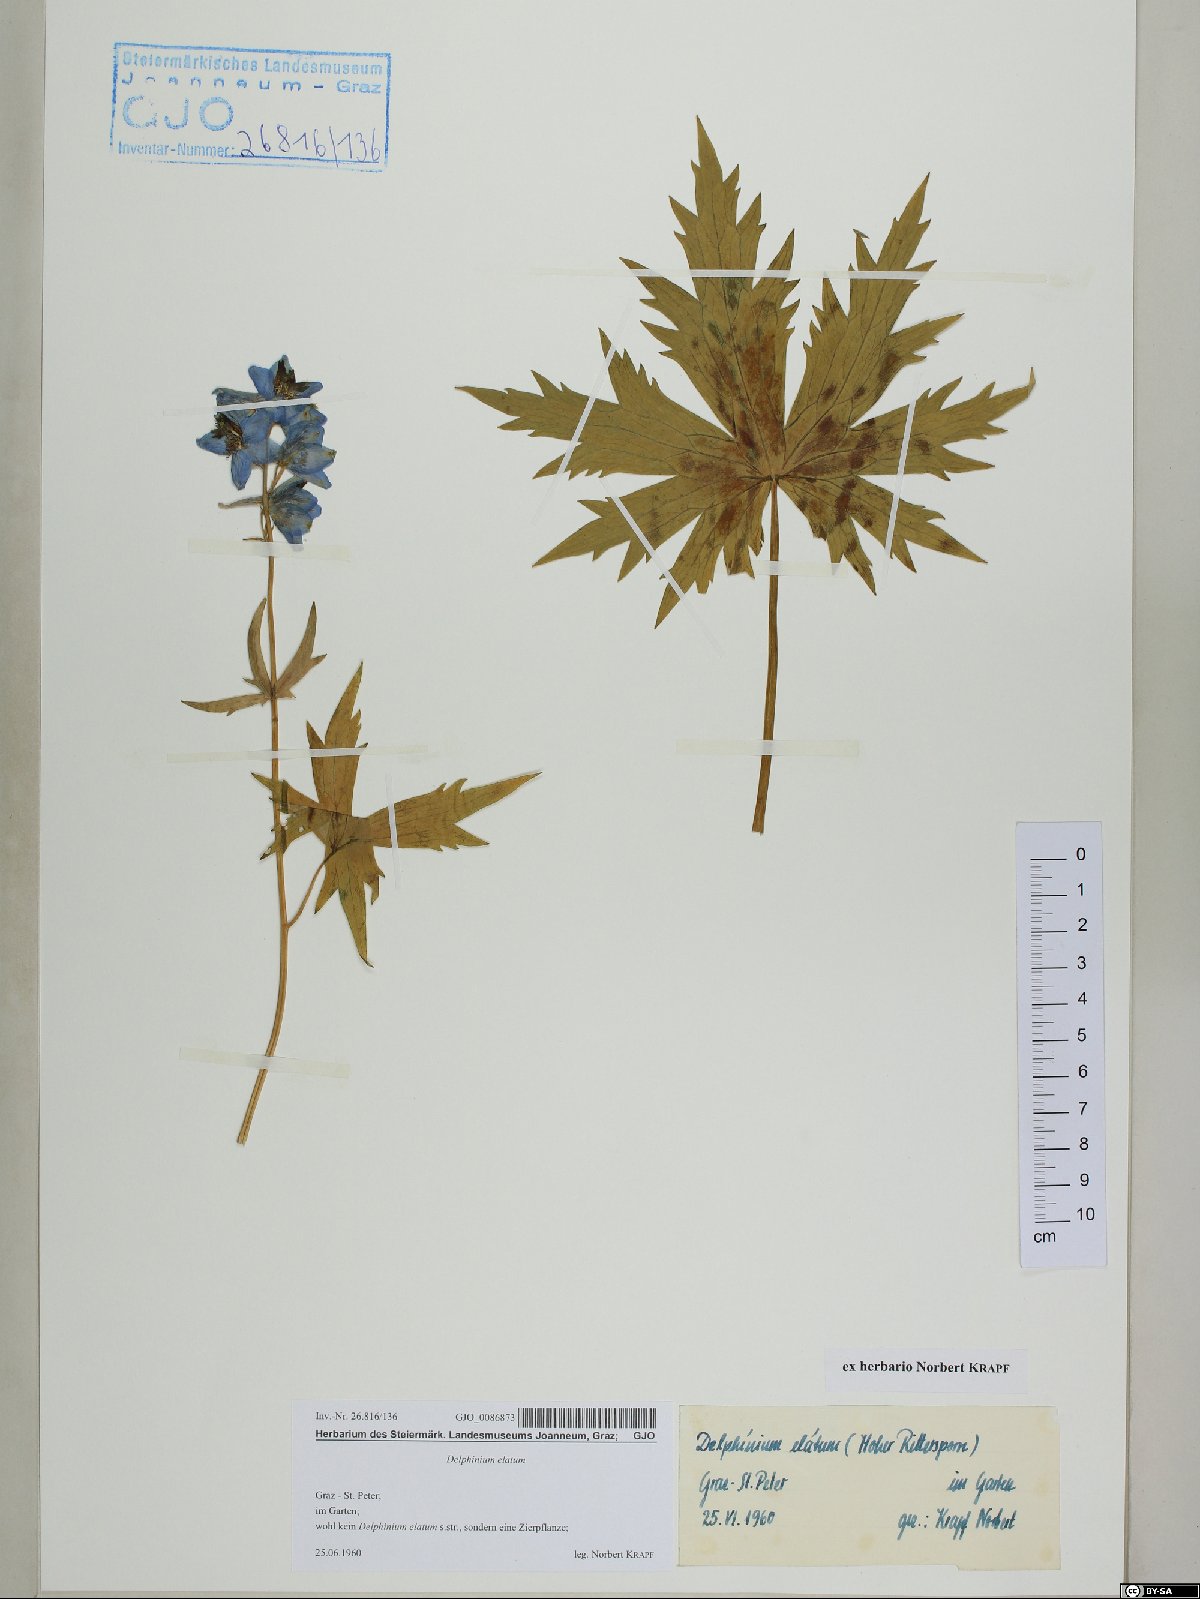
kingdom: Plantae
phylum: Tracheophyta
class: Magnoliopsida
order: Ranunculales
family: Ranunculaceae
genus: Delphinium
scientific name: Delphinium elatum
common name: Candle larkspur
